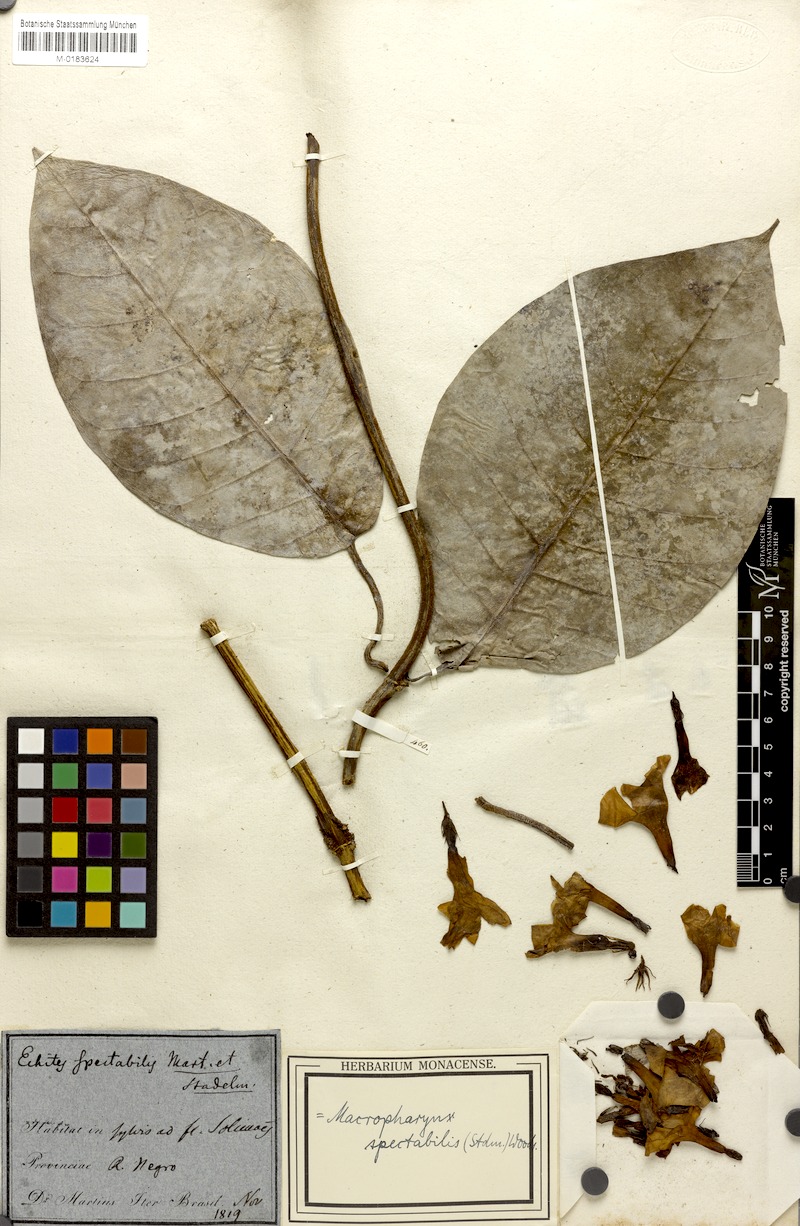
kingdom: Plantae
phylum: Tracheophyta
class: Magnoliopsida
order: Gentianales
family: Apocynaceae
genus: Macropharynx
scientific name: Macropharynx spectabilis
